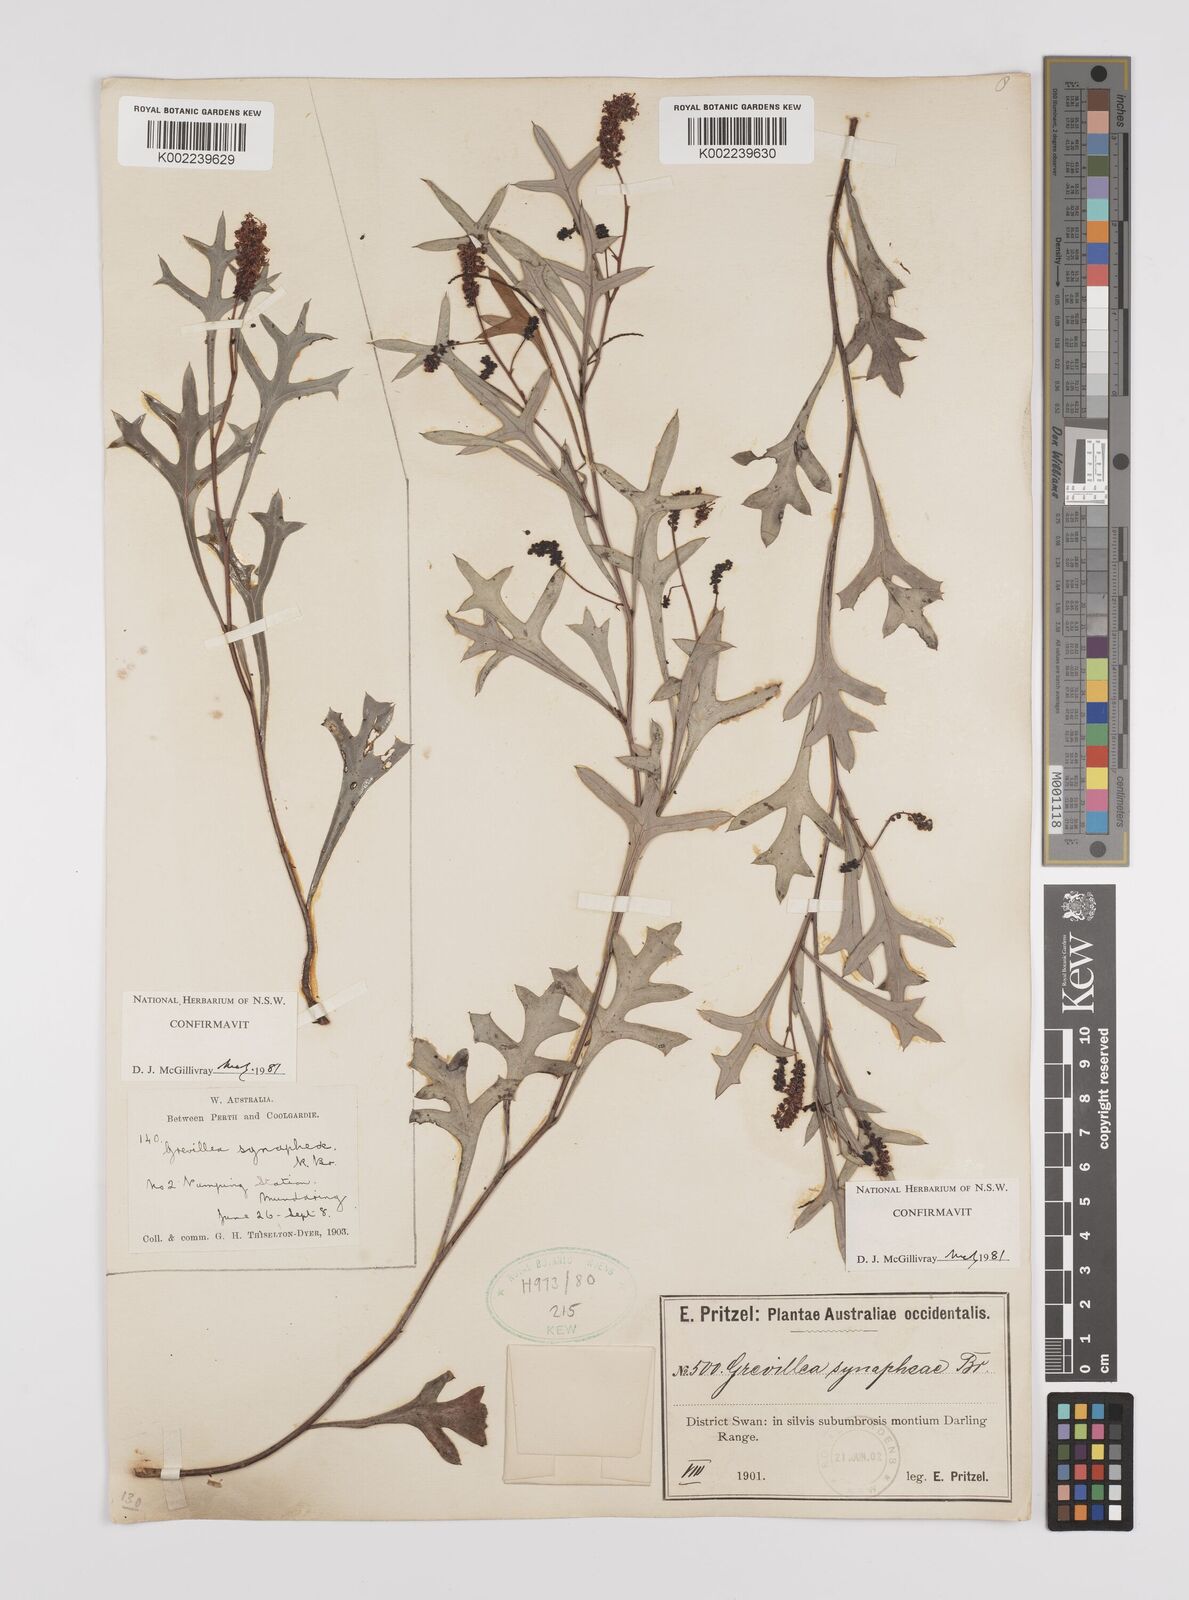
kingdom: Plantae
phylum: Tracheophyta
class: Magnoliopsida
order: Proteales
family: Proteaceae
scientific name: Proteaceae
